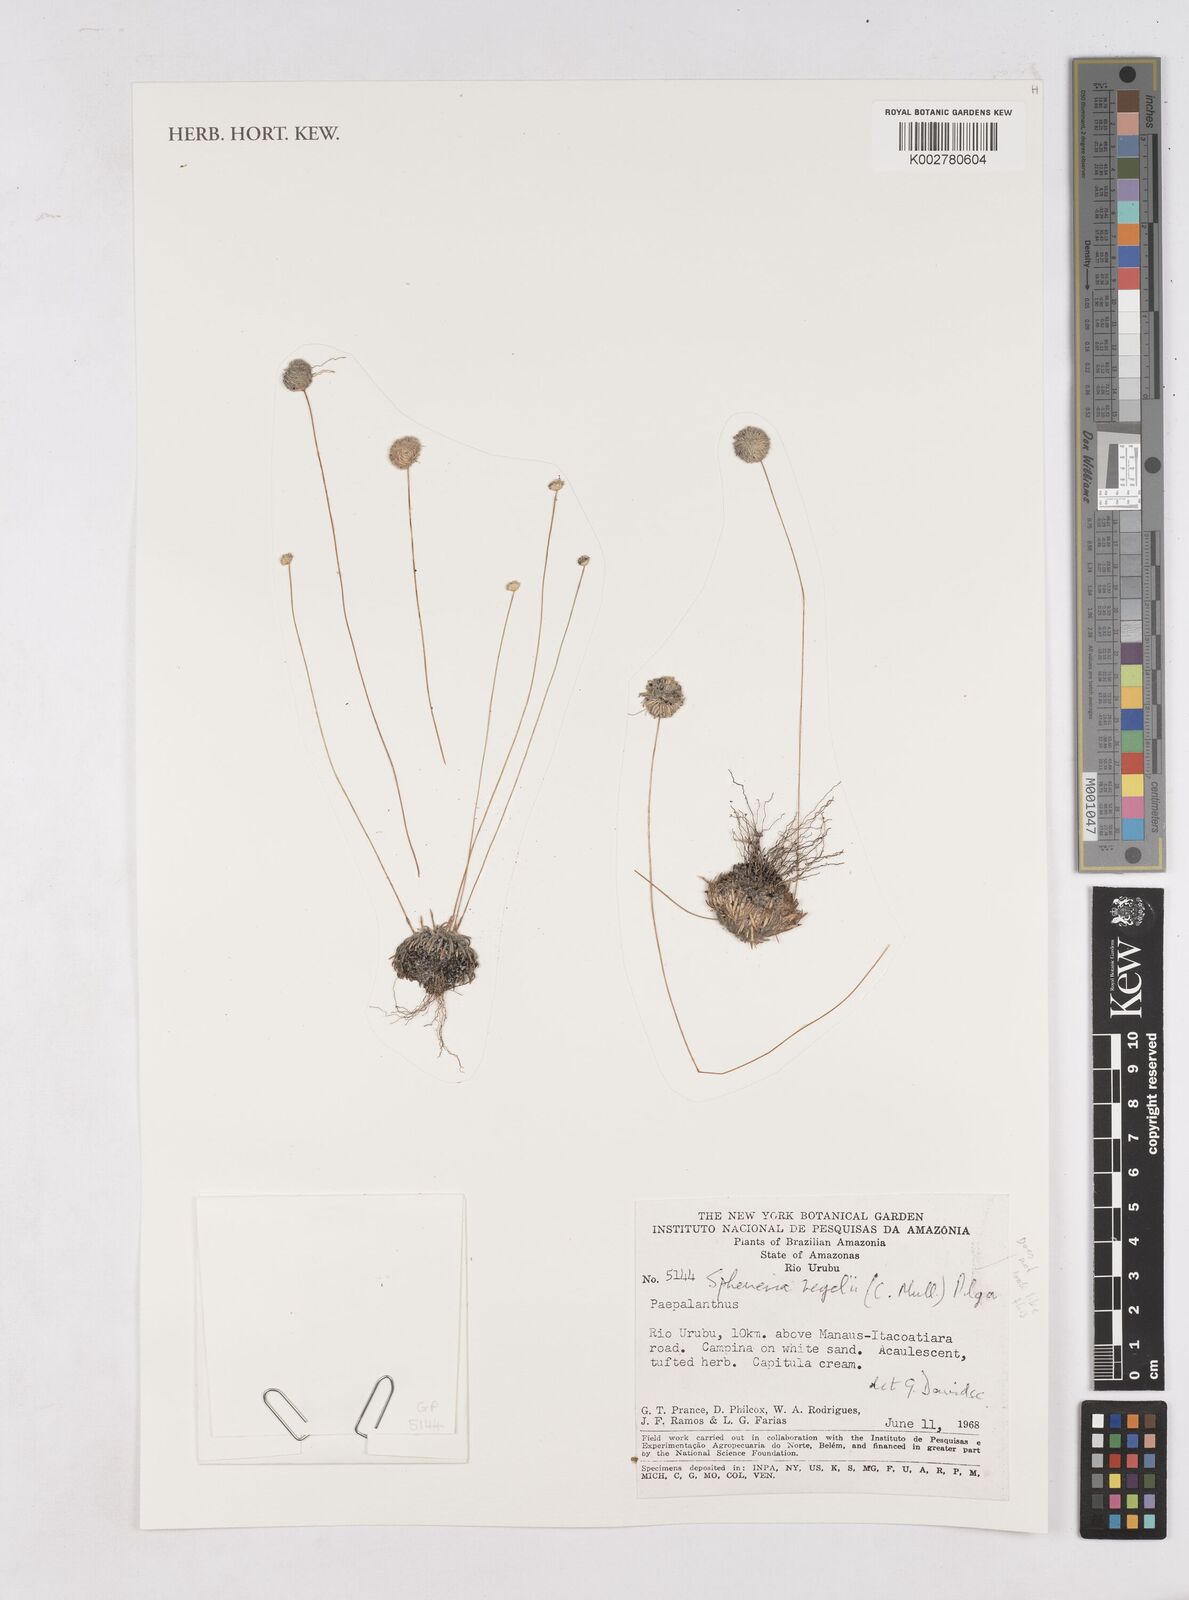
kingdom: Plantae
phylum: Tracheophyta
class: Liliopsida
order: Poales
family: Eriocaulaceae
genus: Paepalanthus
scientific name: Paepalanthus
